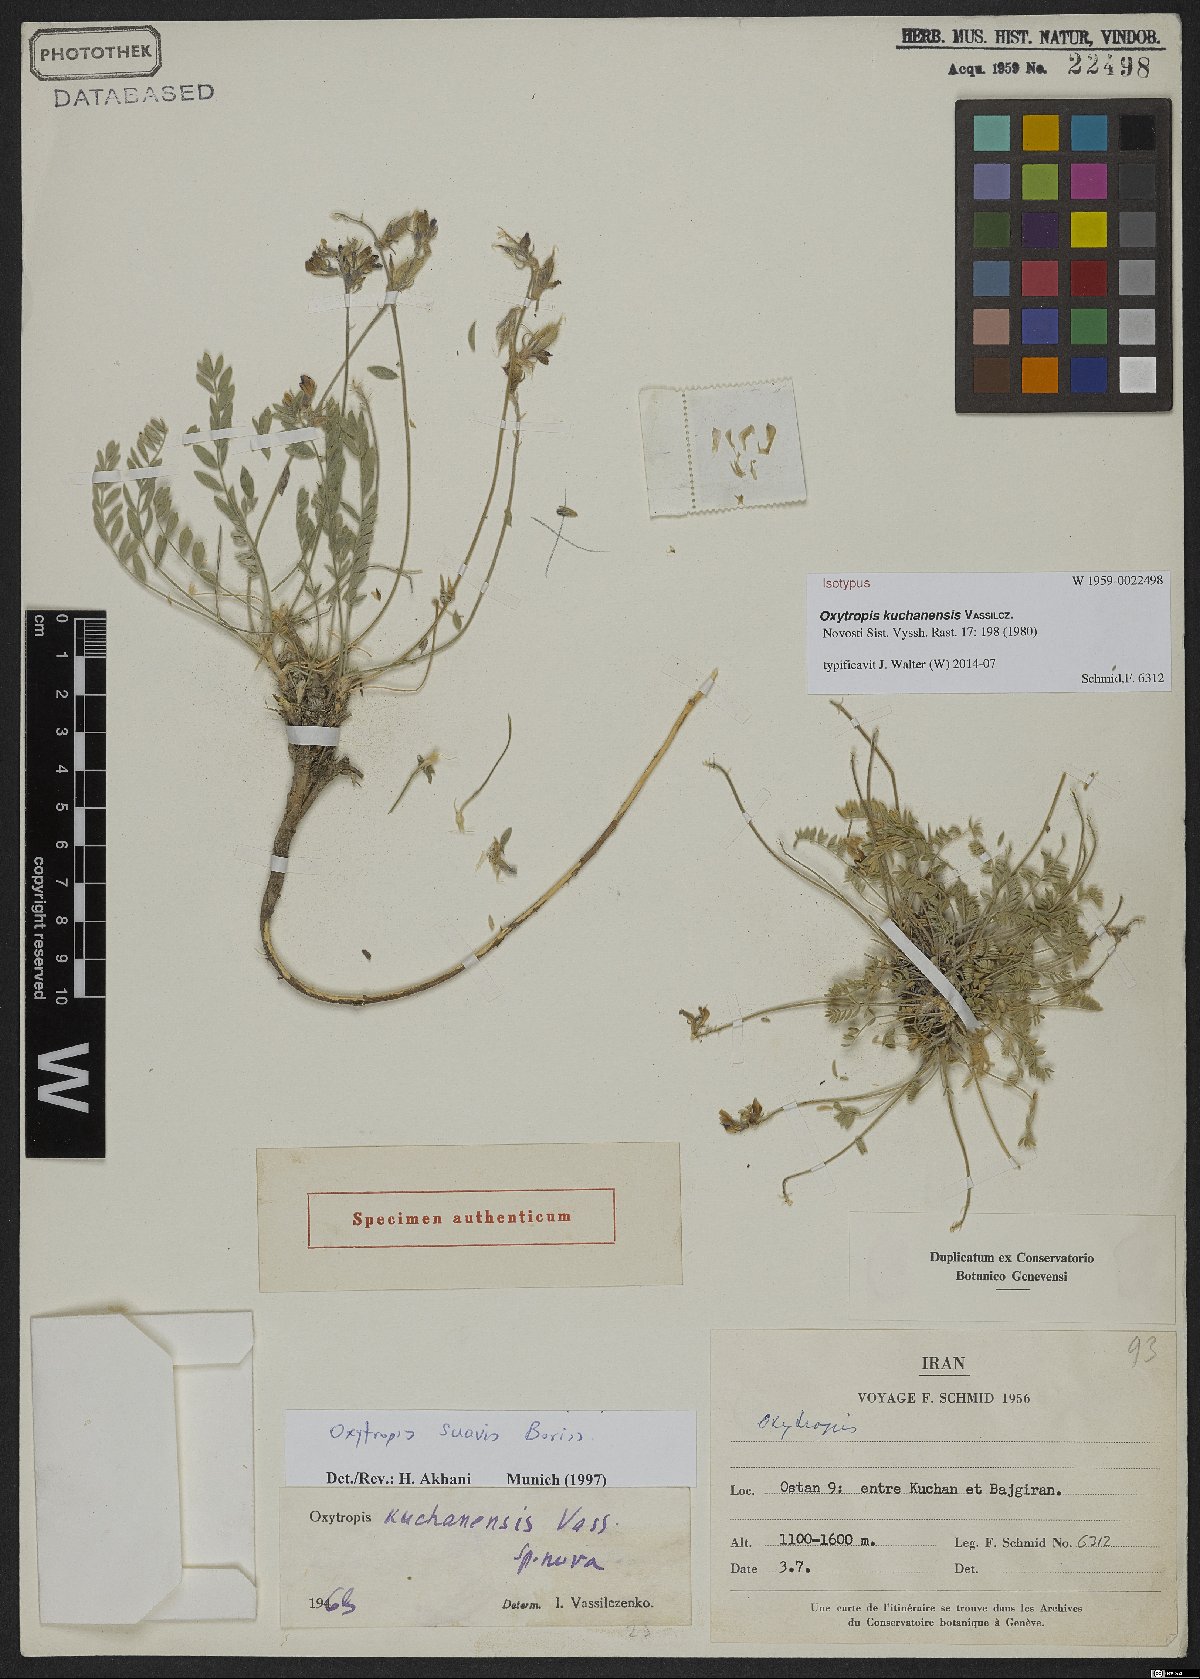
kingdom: Plantae
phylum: Tracheophyta
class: Magnoliopsida
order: Fabales
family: Fabaceae
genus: Oxytropis
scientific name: Oxytropis kuchanensis
